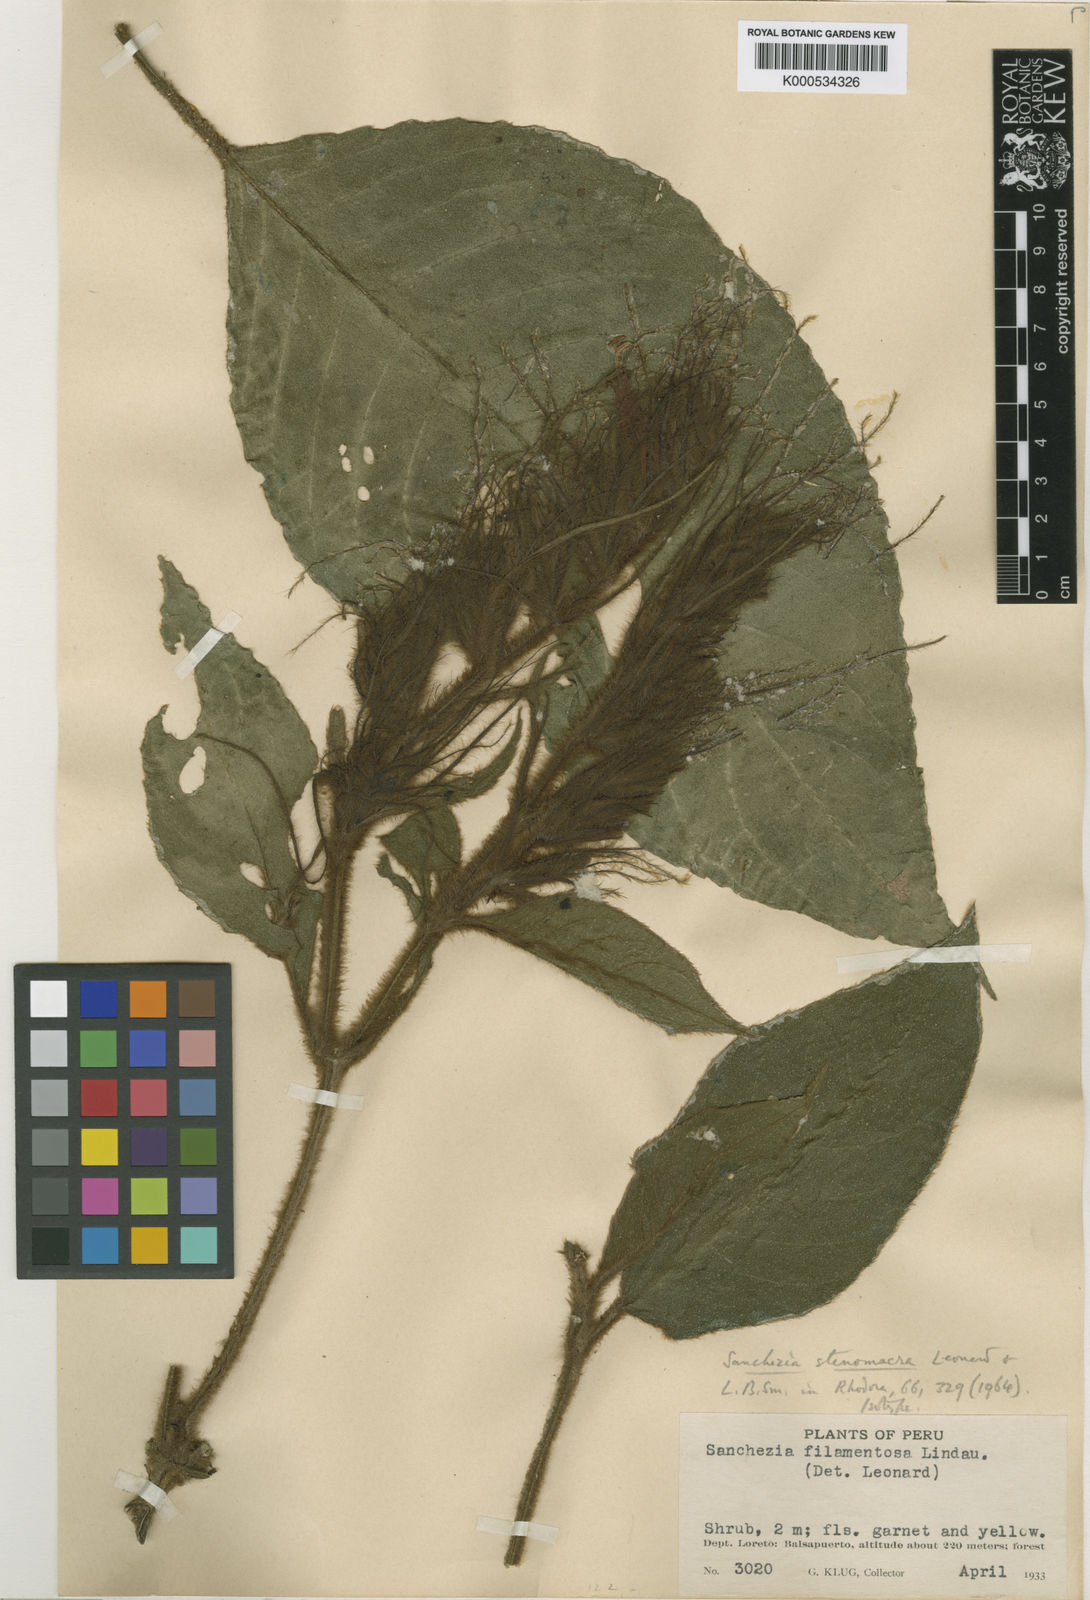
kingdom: Plantae
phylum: Tracheophyta
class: Magnoliopsida
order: Lamiales
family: Acanthaceae
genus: Sanchezia
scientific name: Sanchezia aurea
